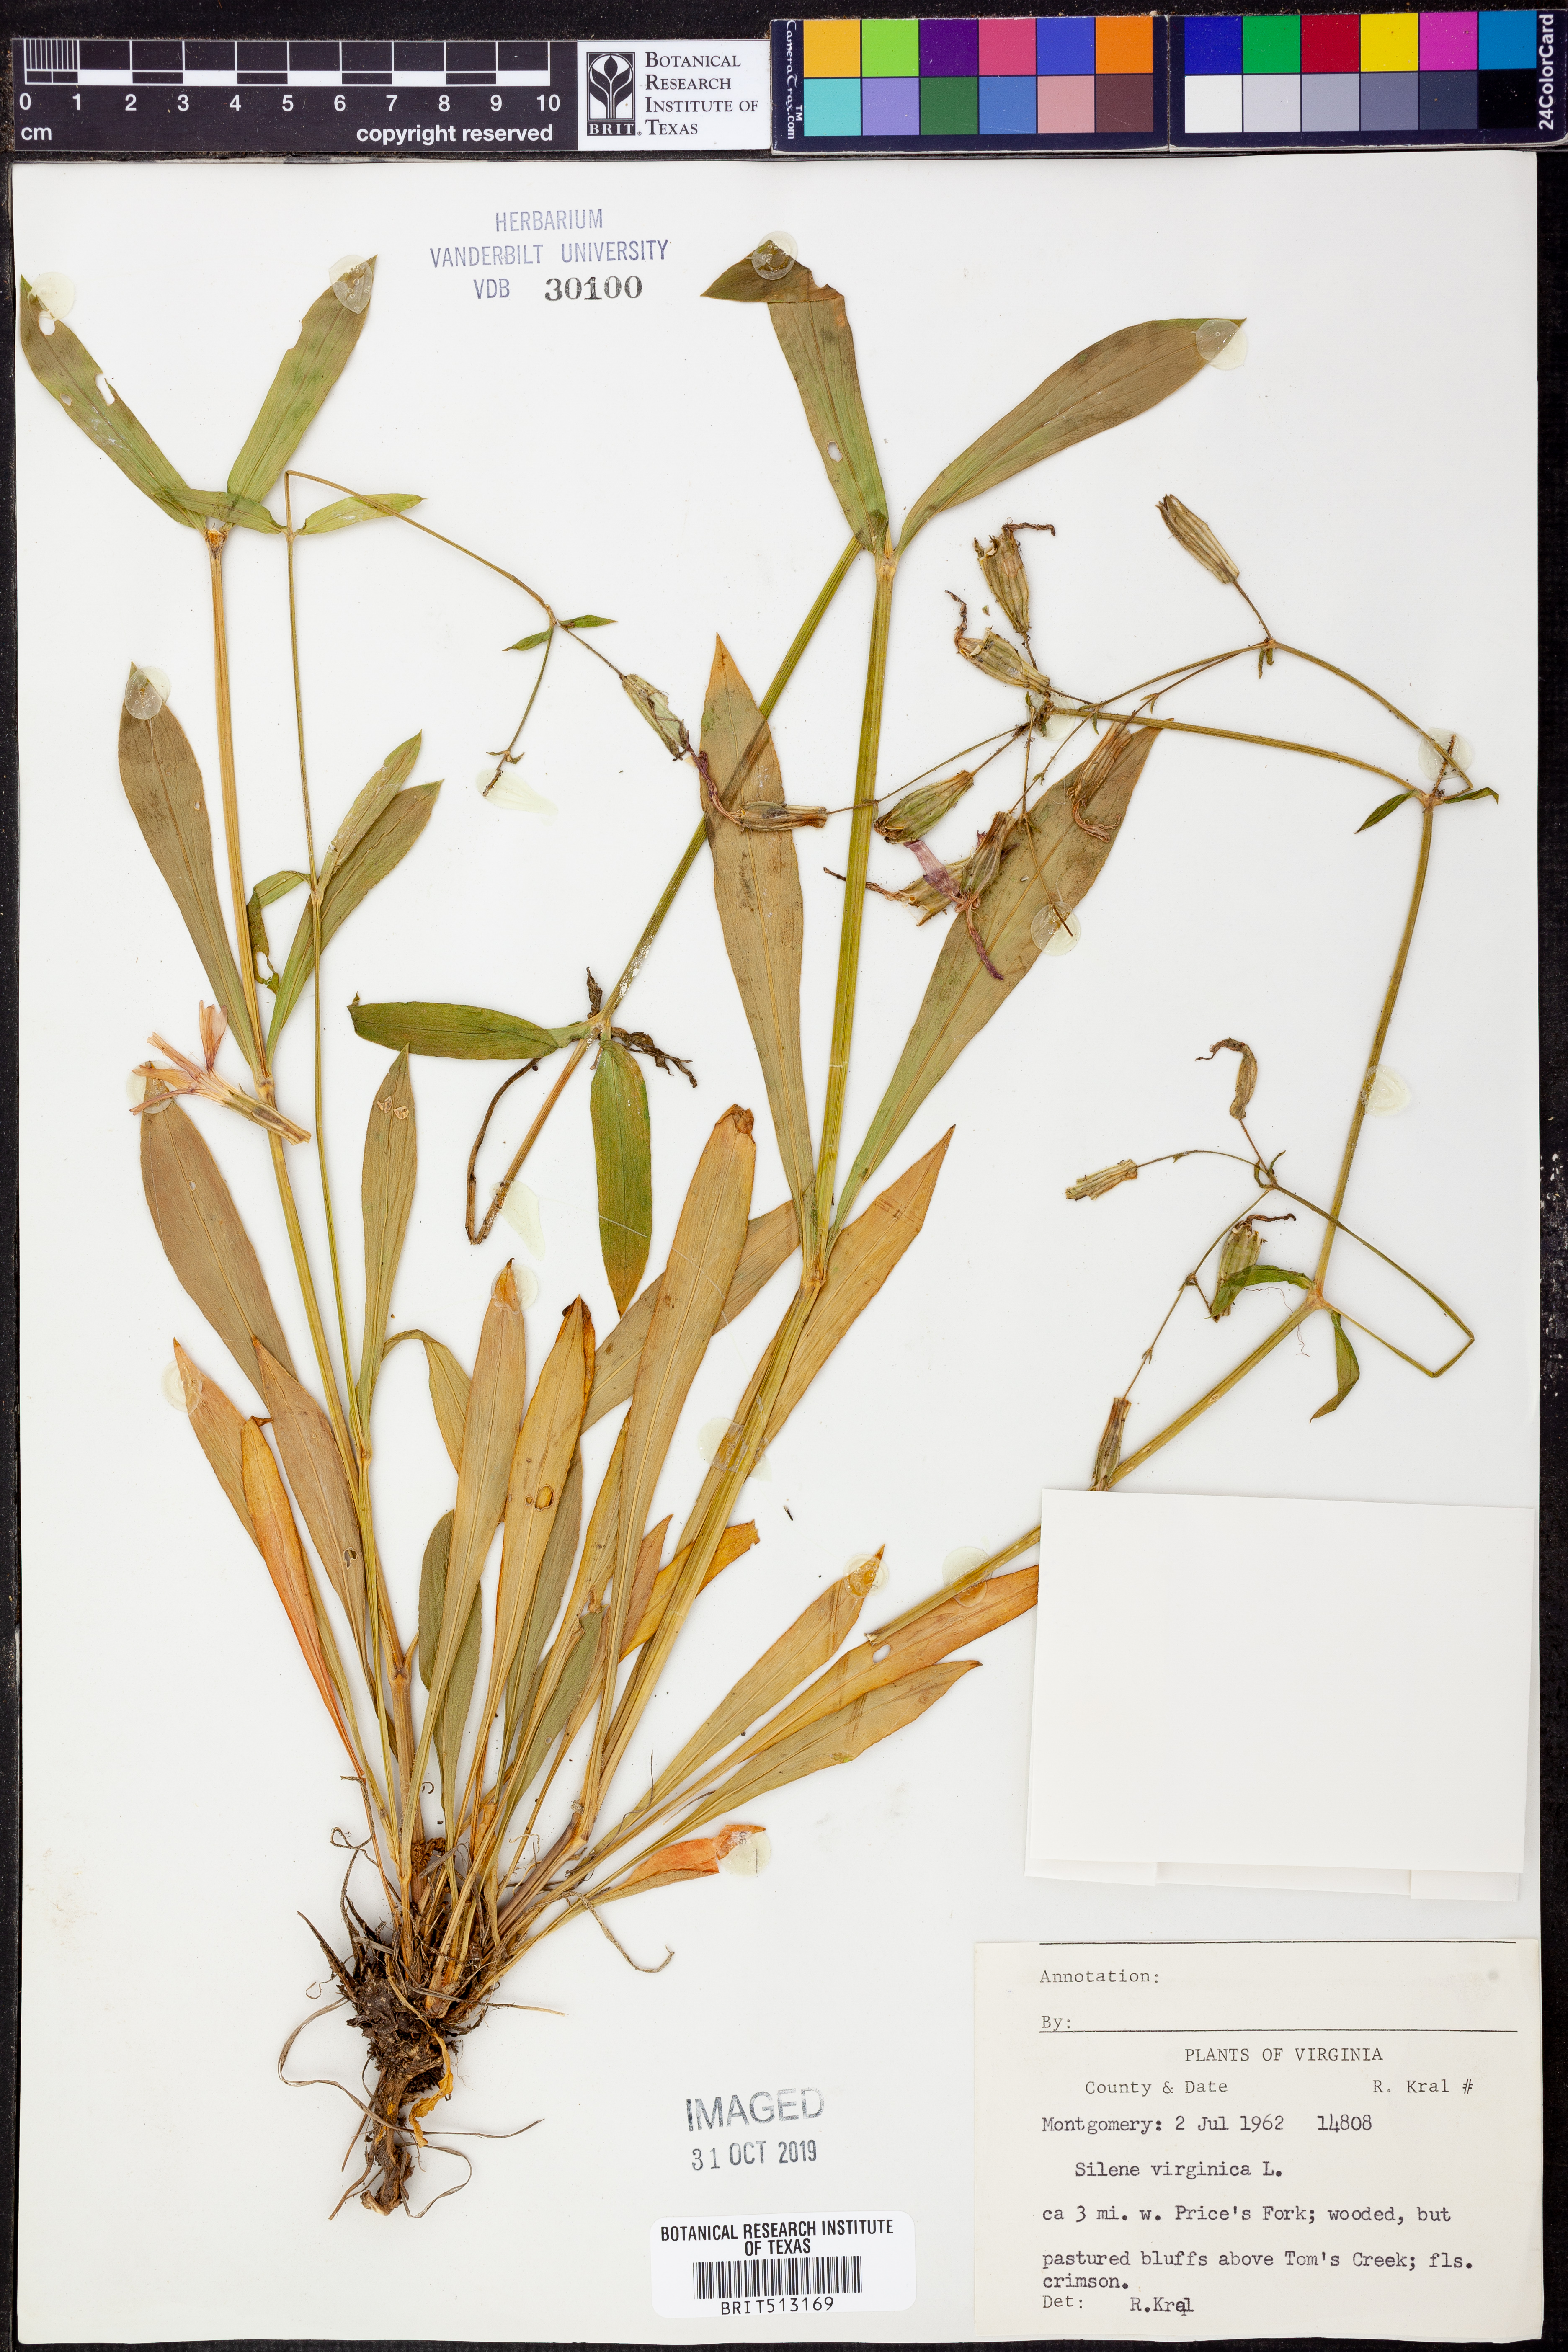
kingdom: Plantae
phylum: Tracheophyta
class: Magnoliopsida
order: Caryophyllales
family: Caryophyllaceae
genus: Silene
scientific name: Silene virginica
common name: Fire-pink
